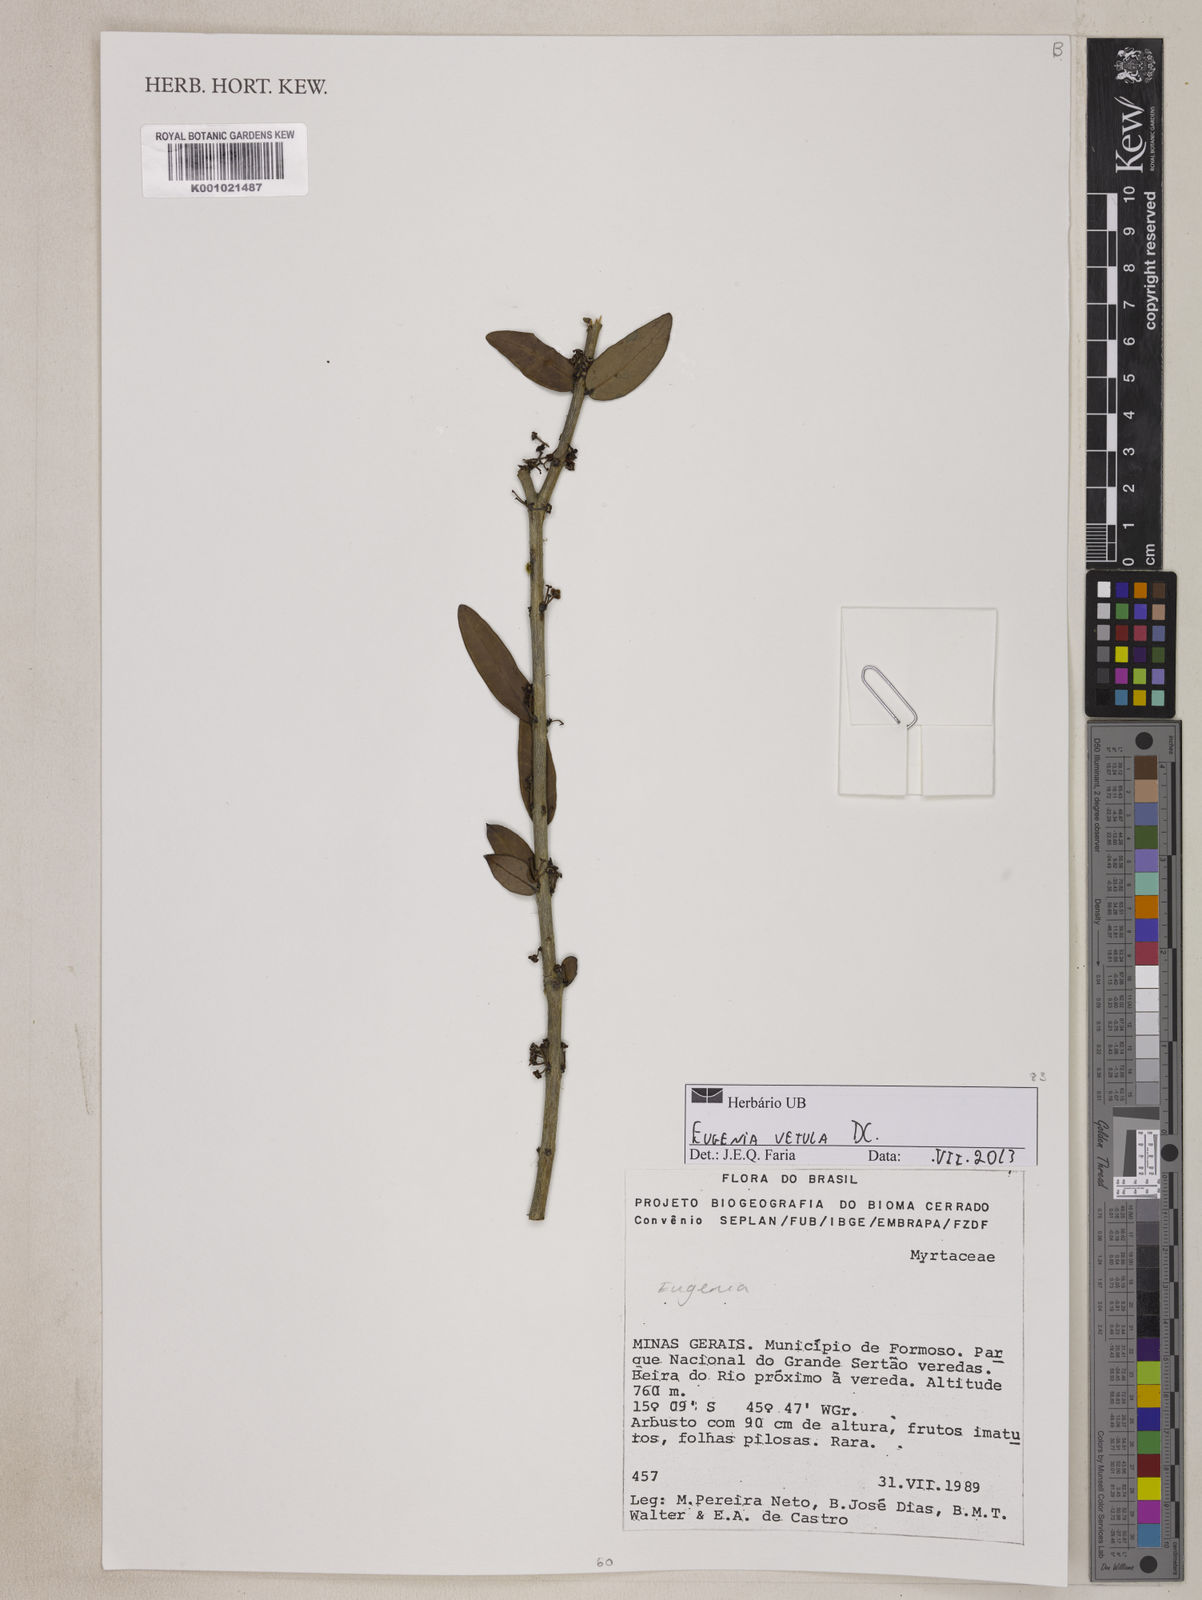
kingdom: Plantae
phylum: Tracheophyta
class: Magnoliopsida
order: Myrtales
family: Myrtaceae
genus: Eugenia
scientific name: Eugenia vetula
